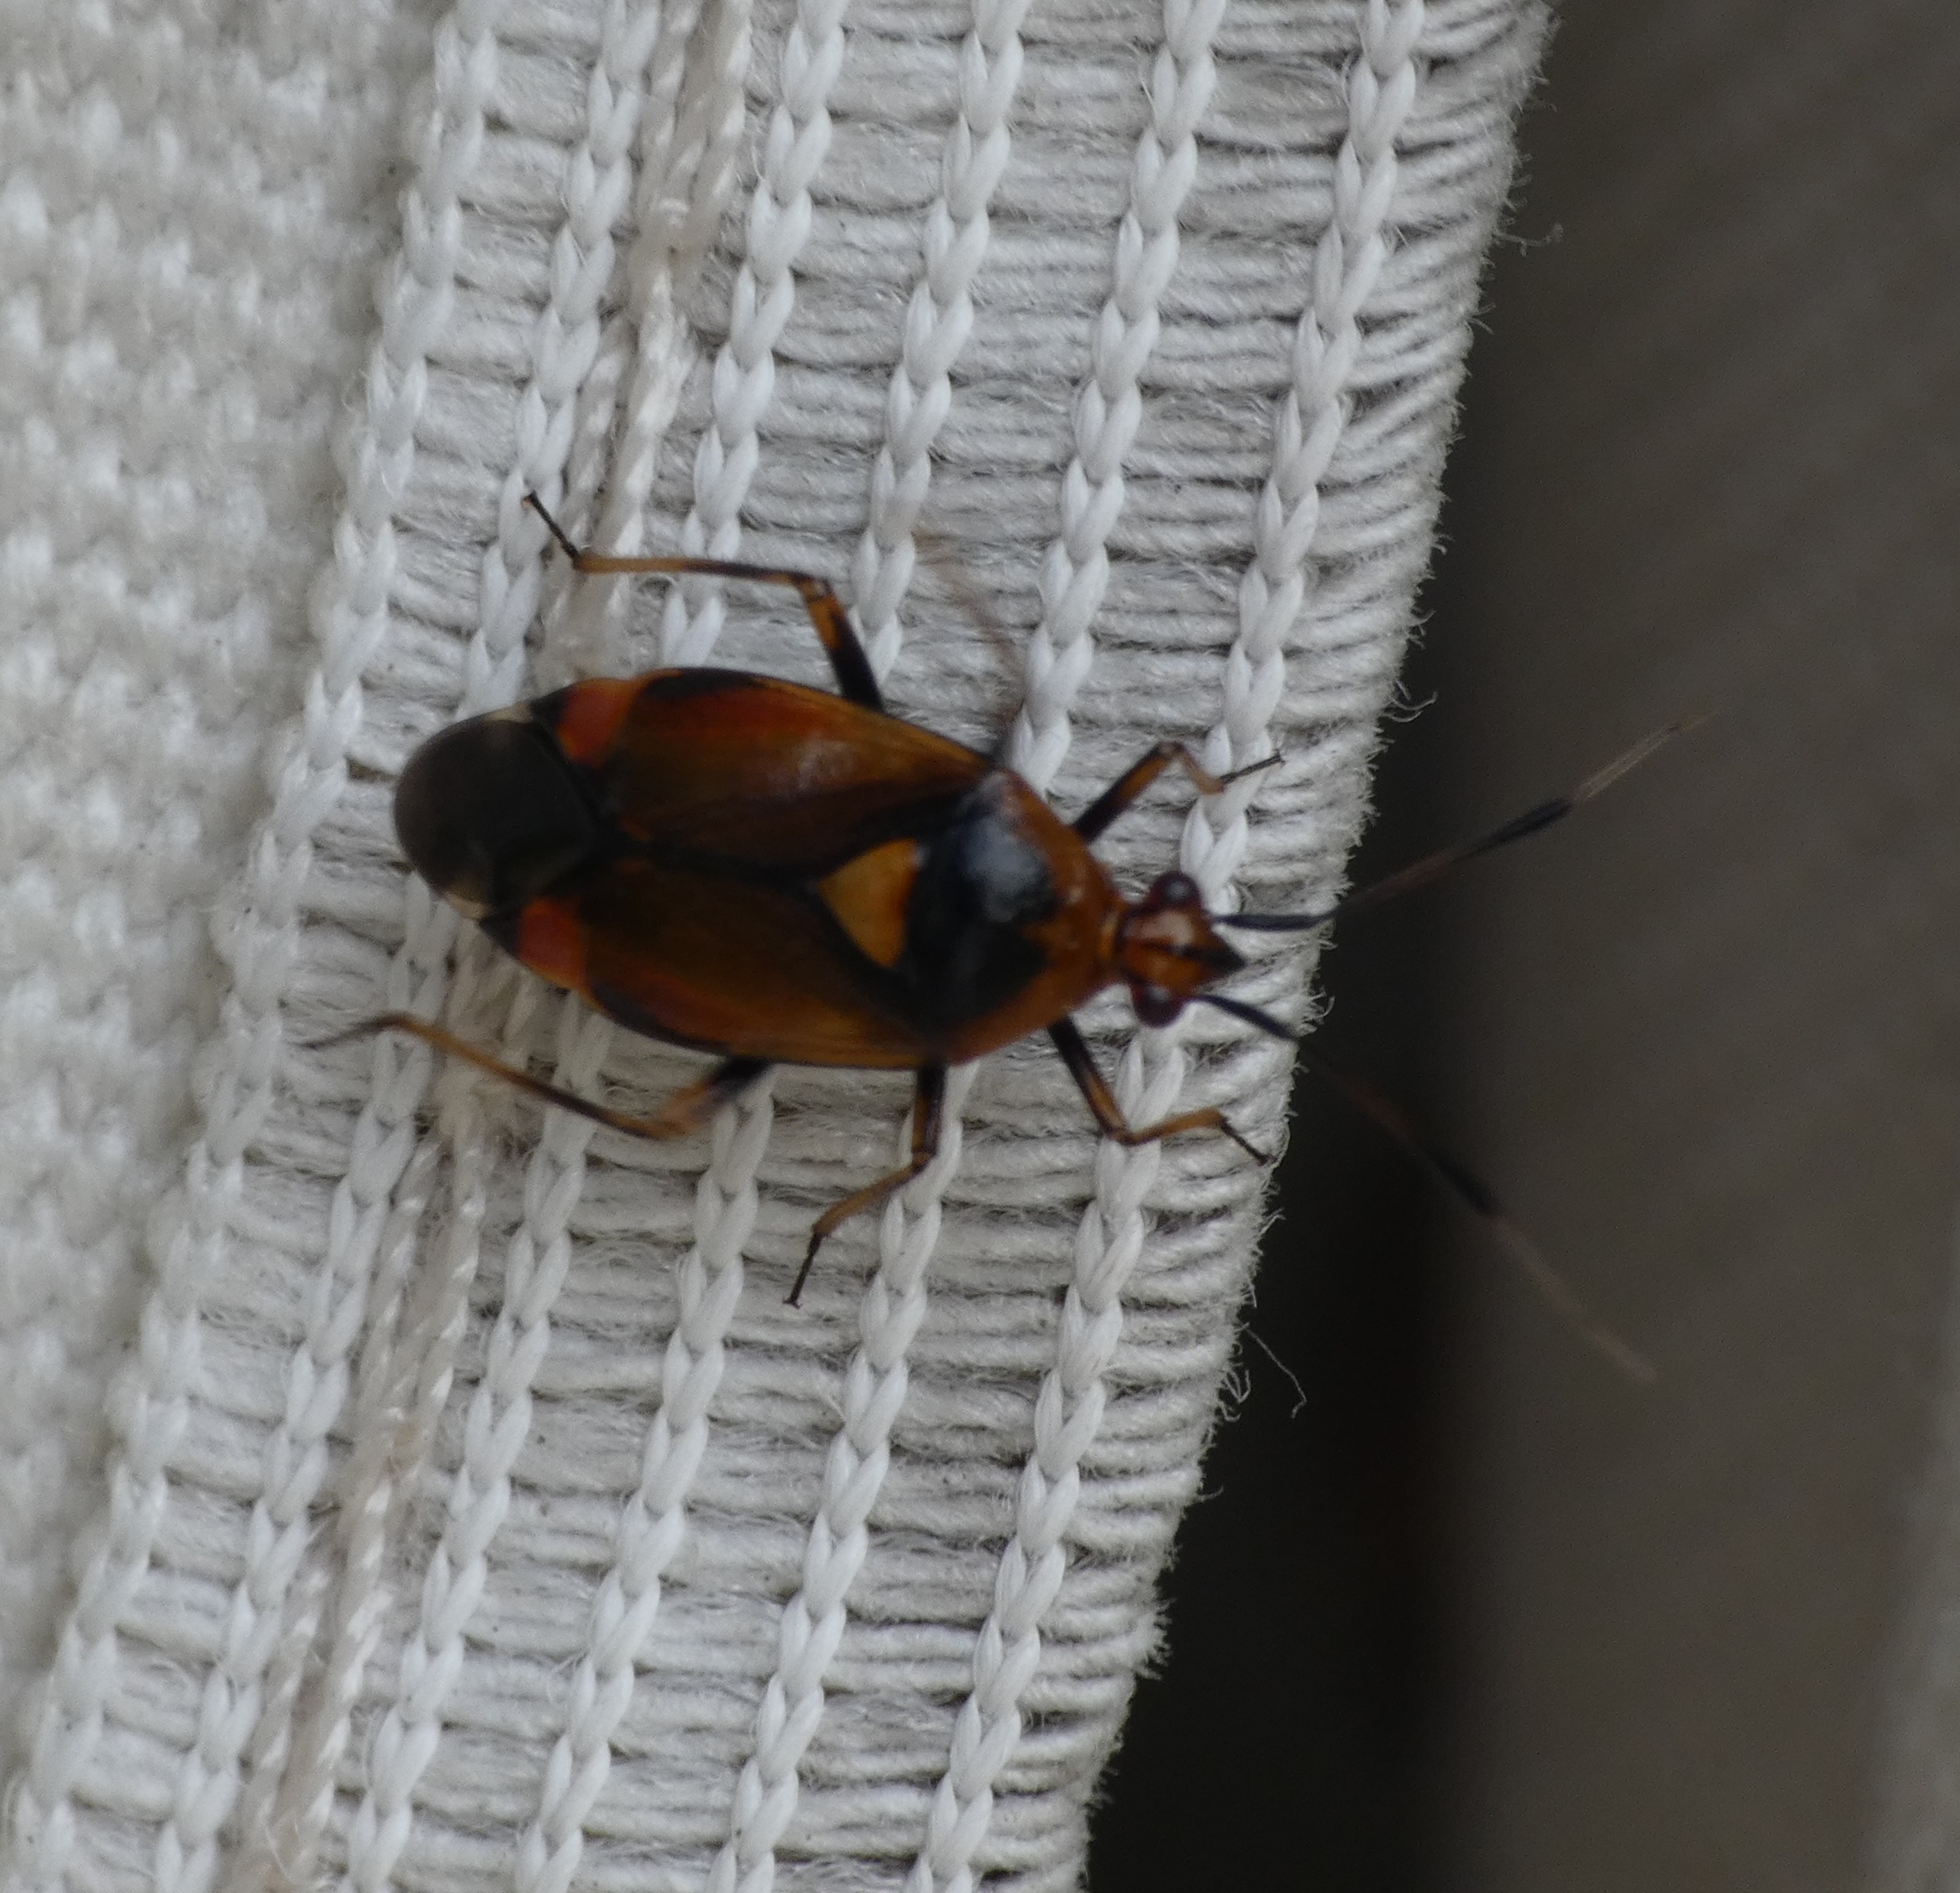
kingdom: Animalia
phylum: Arthropoda
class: Insecta
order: Hemiptera
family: Miridae
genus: Deraeocoris
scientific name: Deraeocoris ruber
